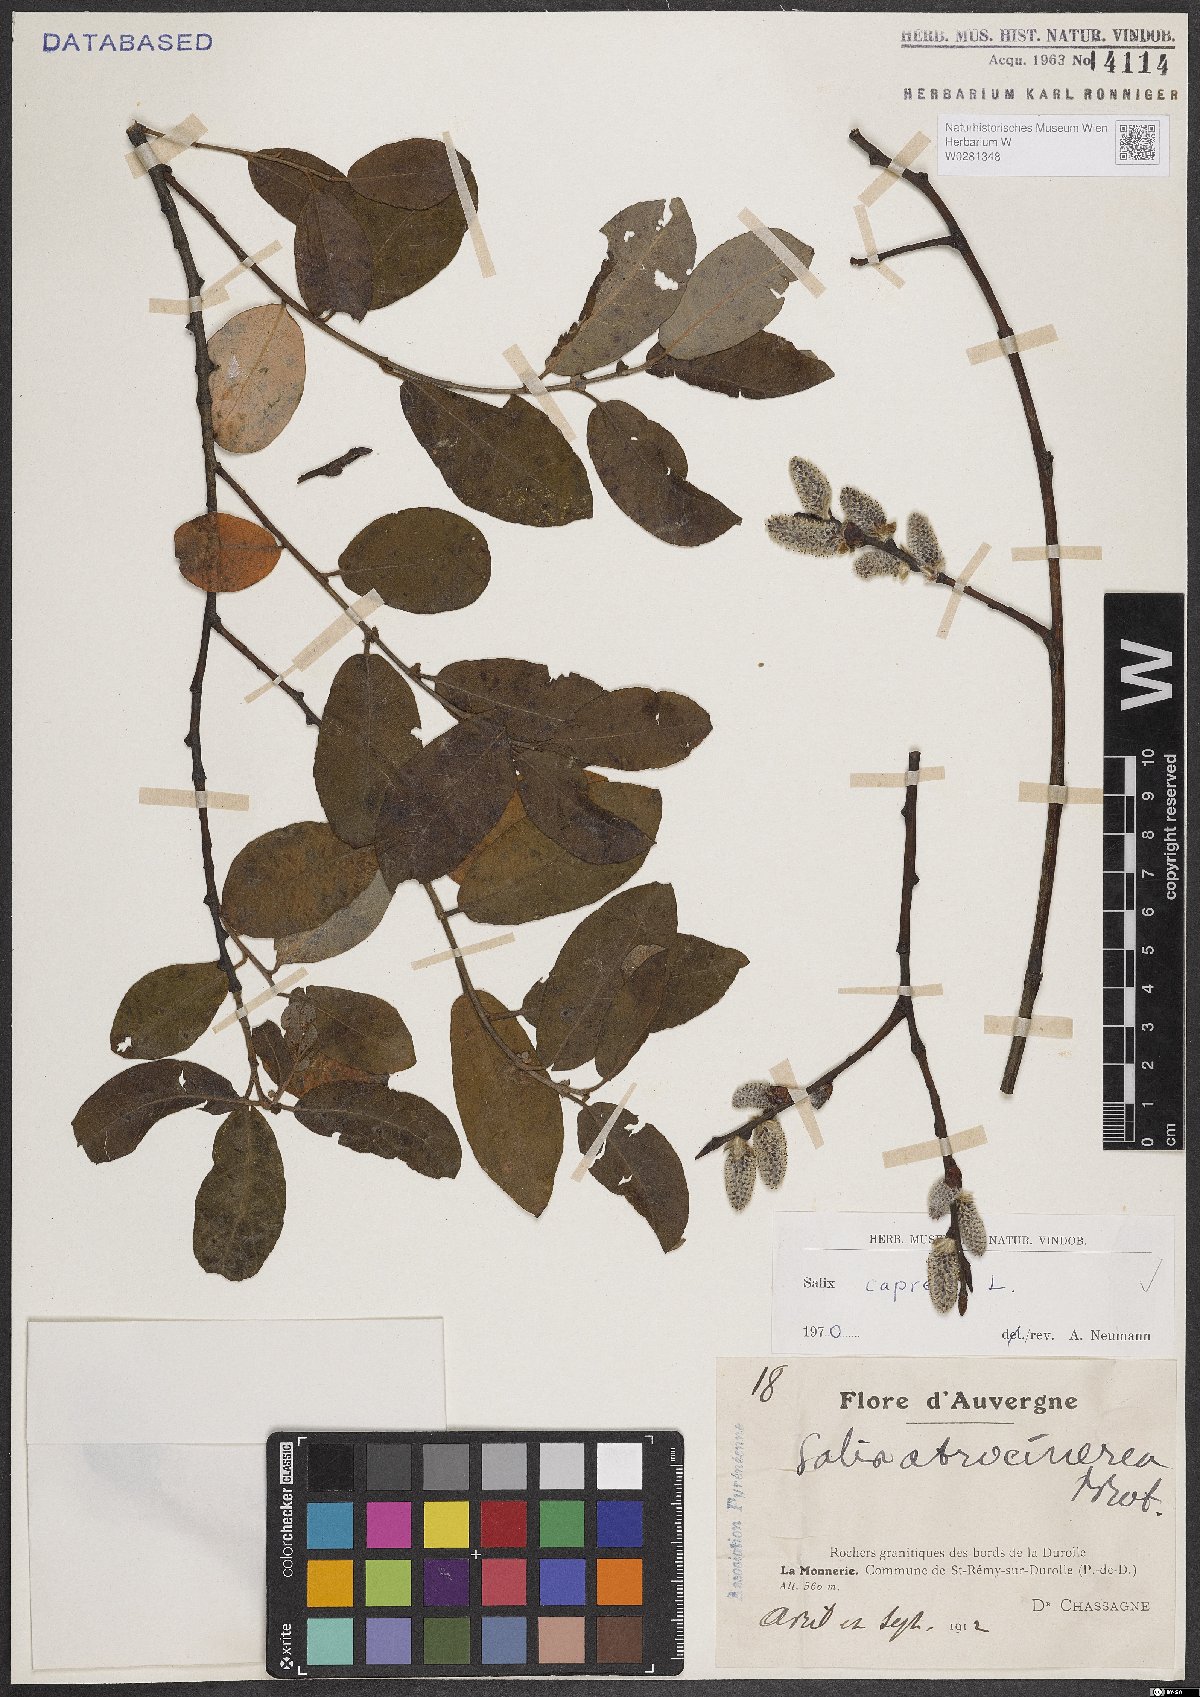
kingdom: Plantae
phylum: Tracheophyta
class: Magnoliopsida
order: Malpighiales
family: Salicaceae
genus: Salix
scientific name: Salix caprea
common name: Goat willow
